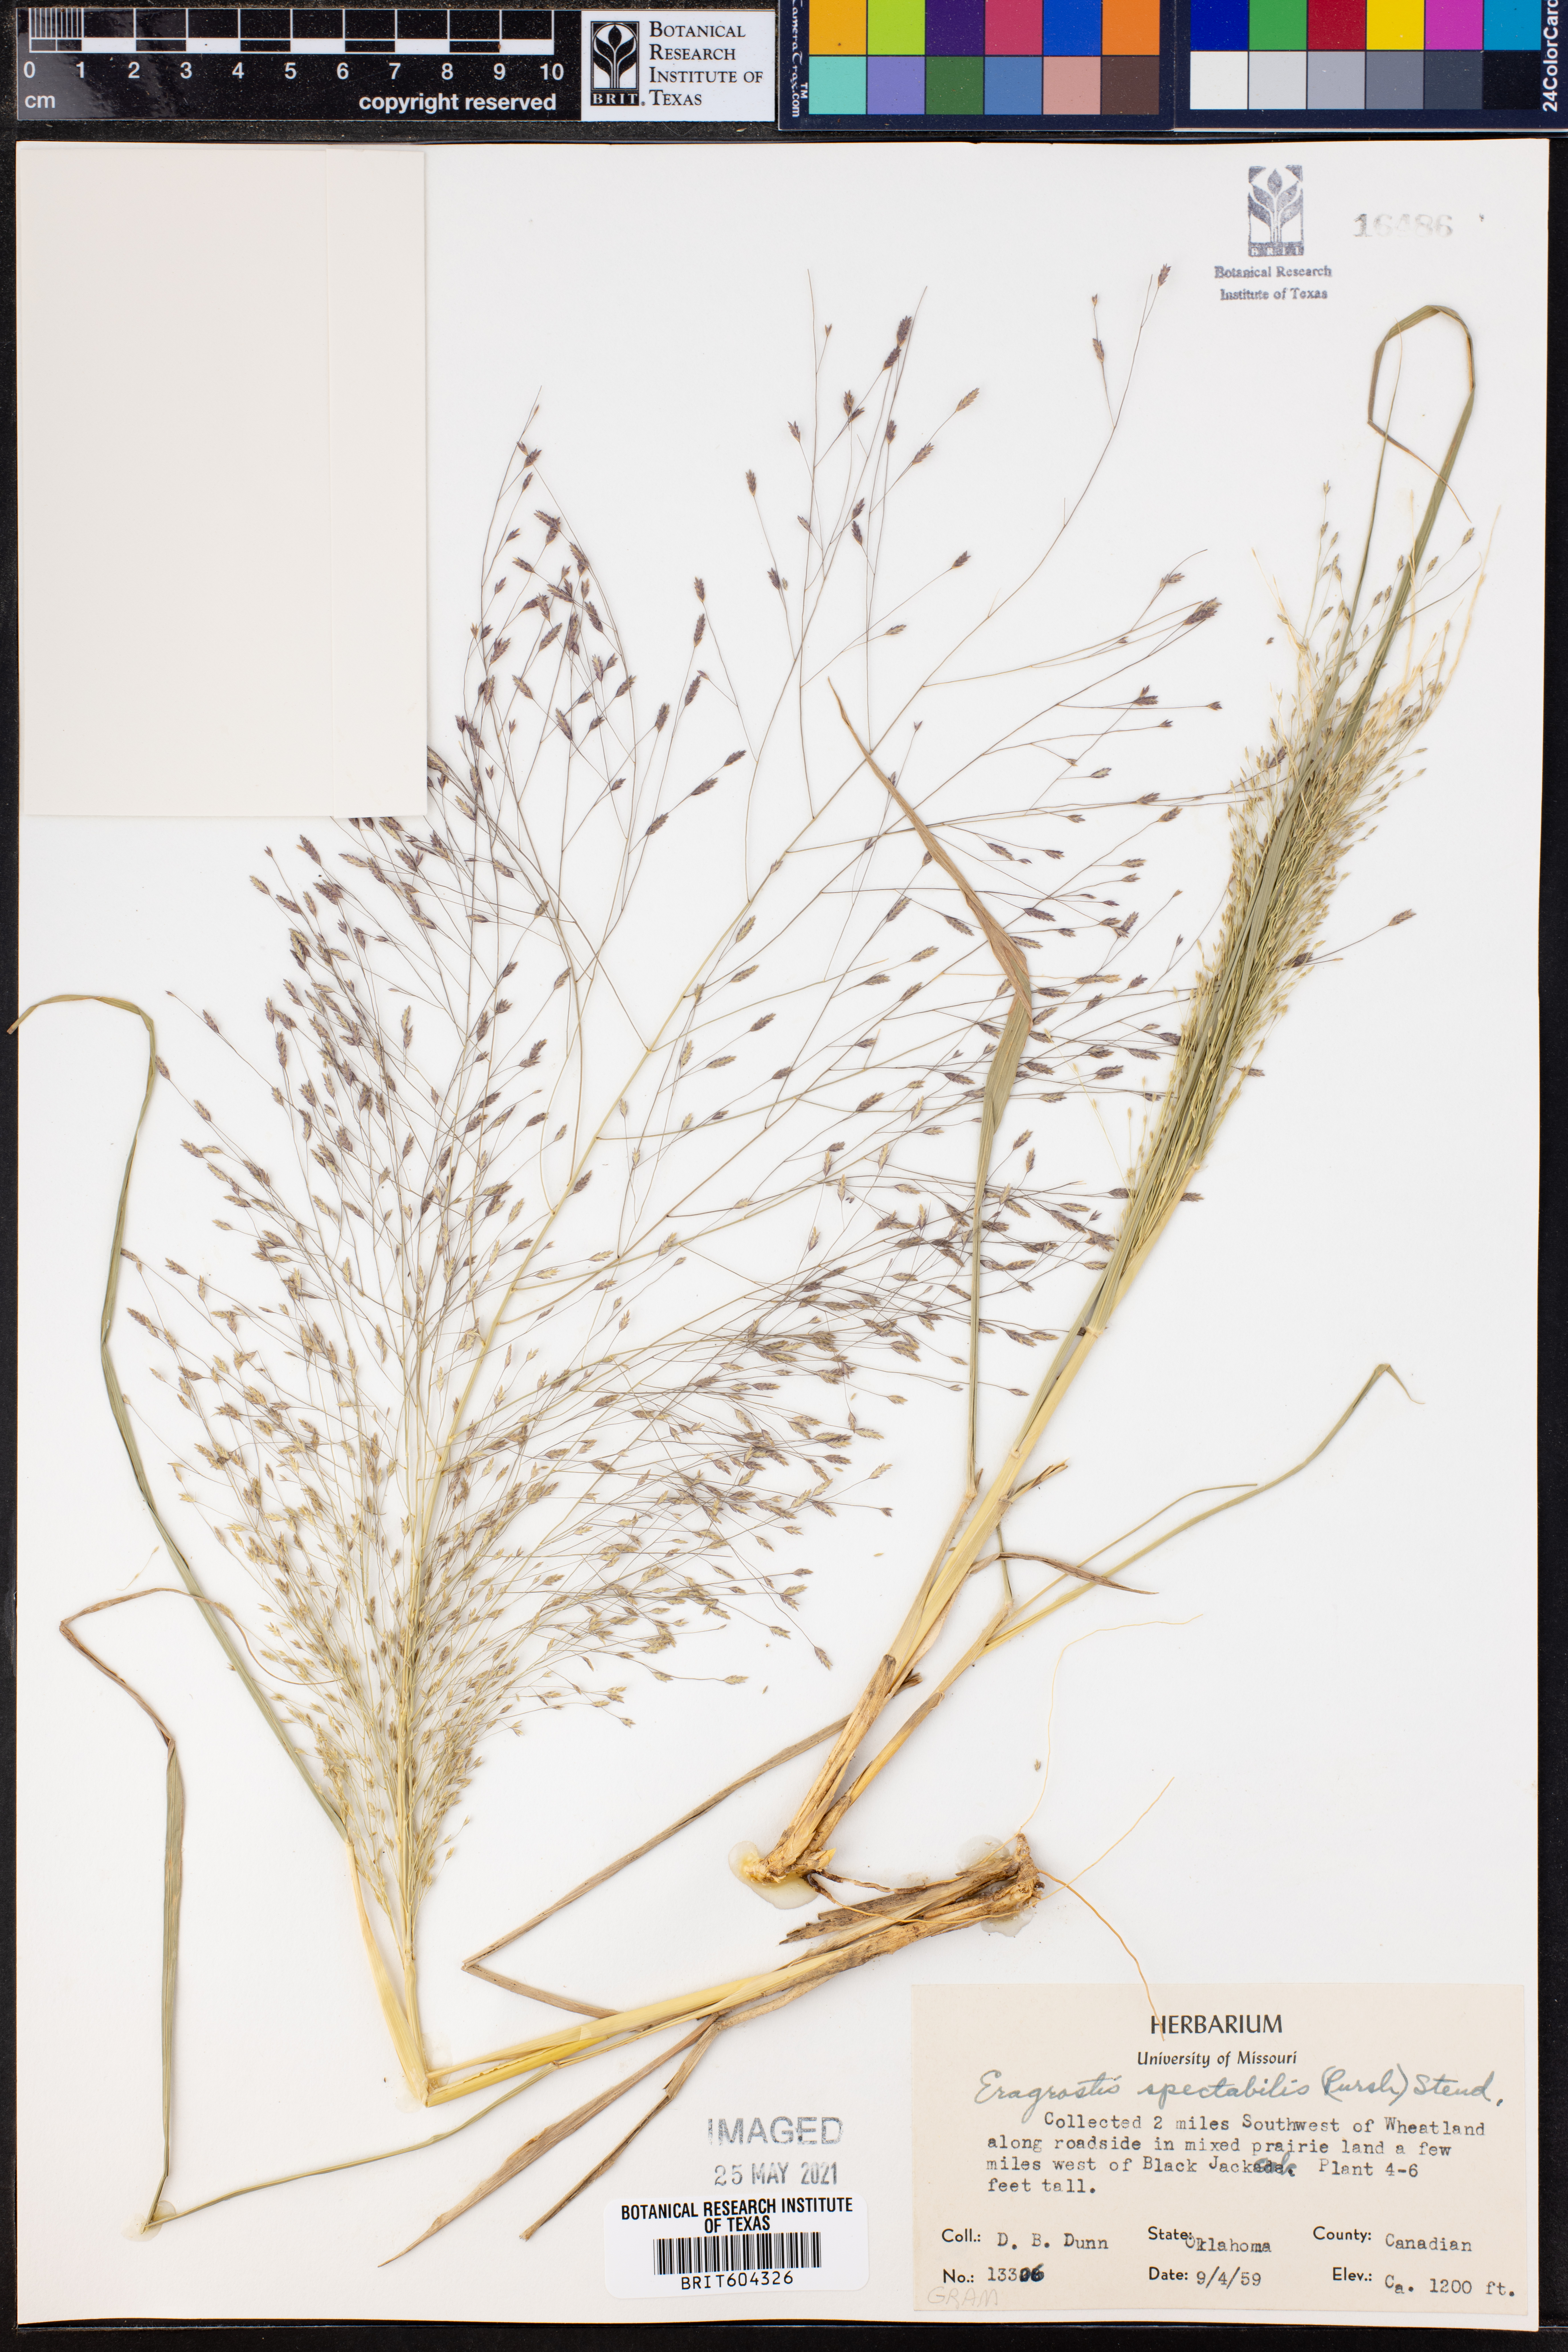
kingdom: Plantae
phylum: Tracheophyta
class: Liliopsida
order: Poales
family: Poaceae
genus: Eragrostis
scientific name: Eragrostis spectabilis
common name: Petticoat-climber
